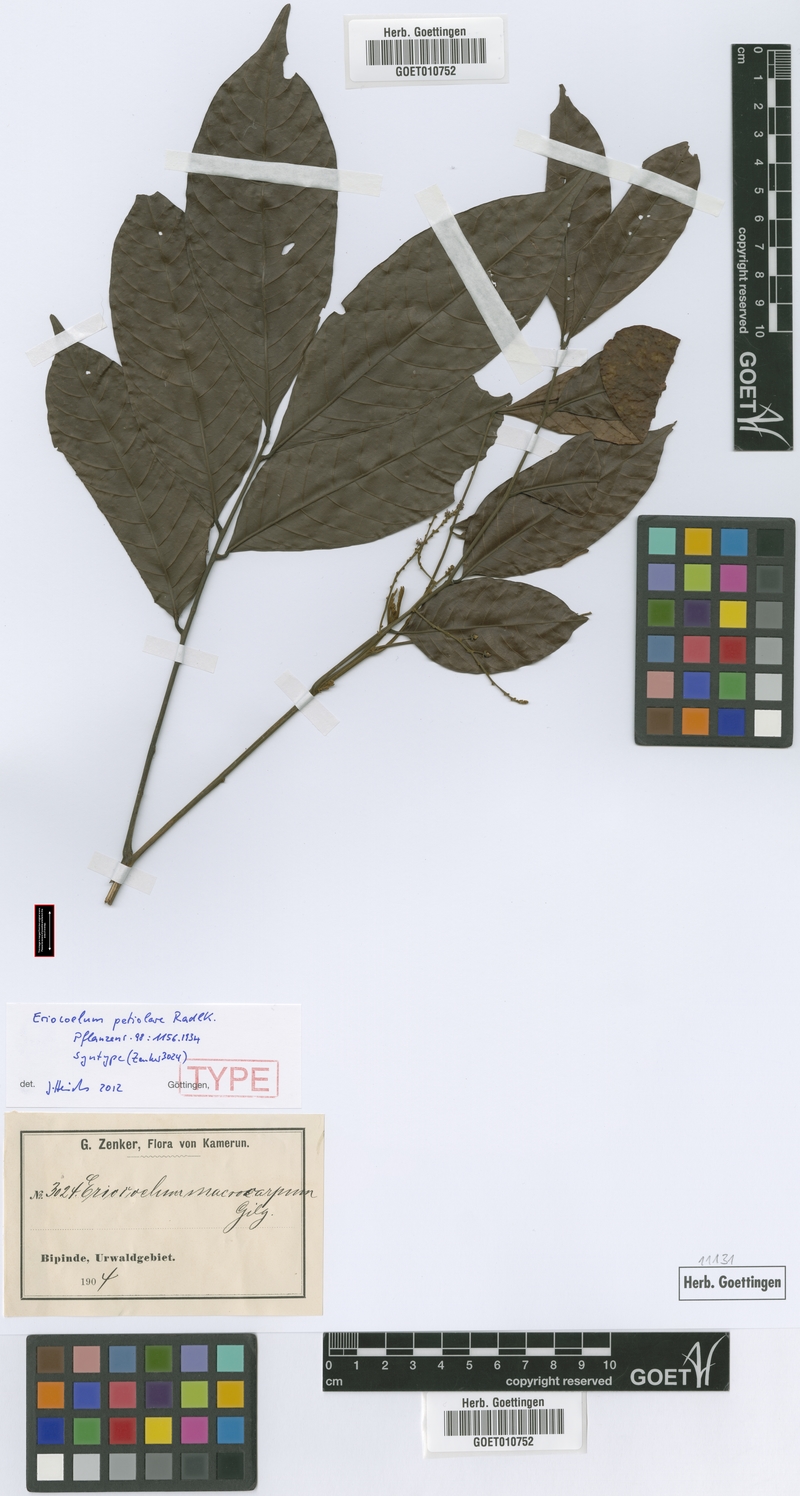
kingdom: Plantae
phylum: Tracheophyta
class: Magnoliopsida
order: Sapindales
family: Sapindaceae
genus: Eriocoelum
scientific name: Eriocoelum petiolare
